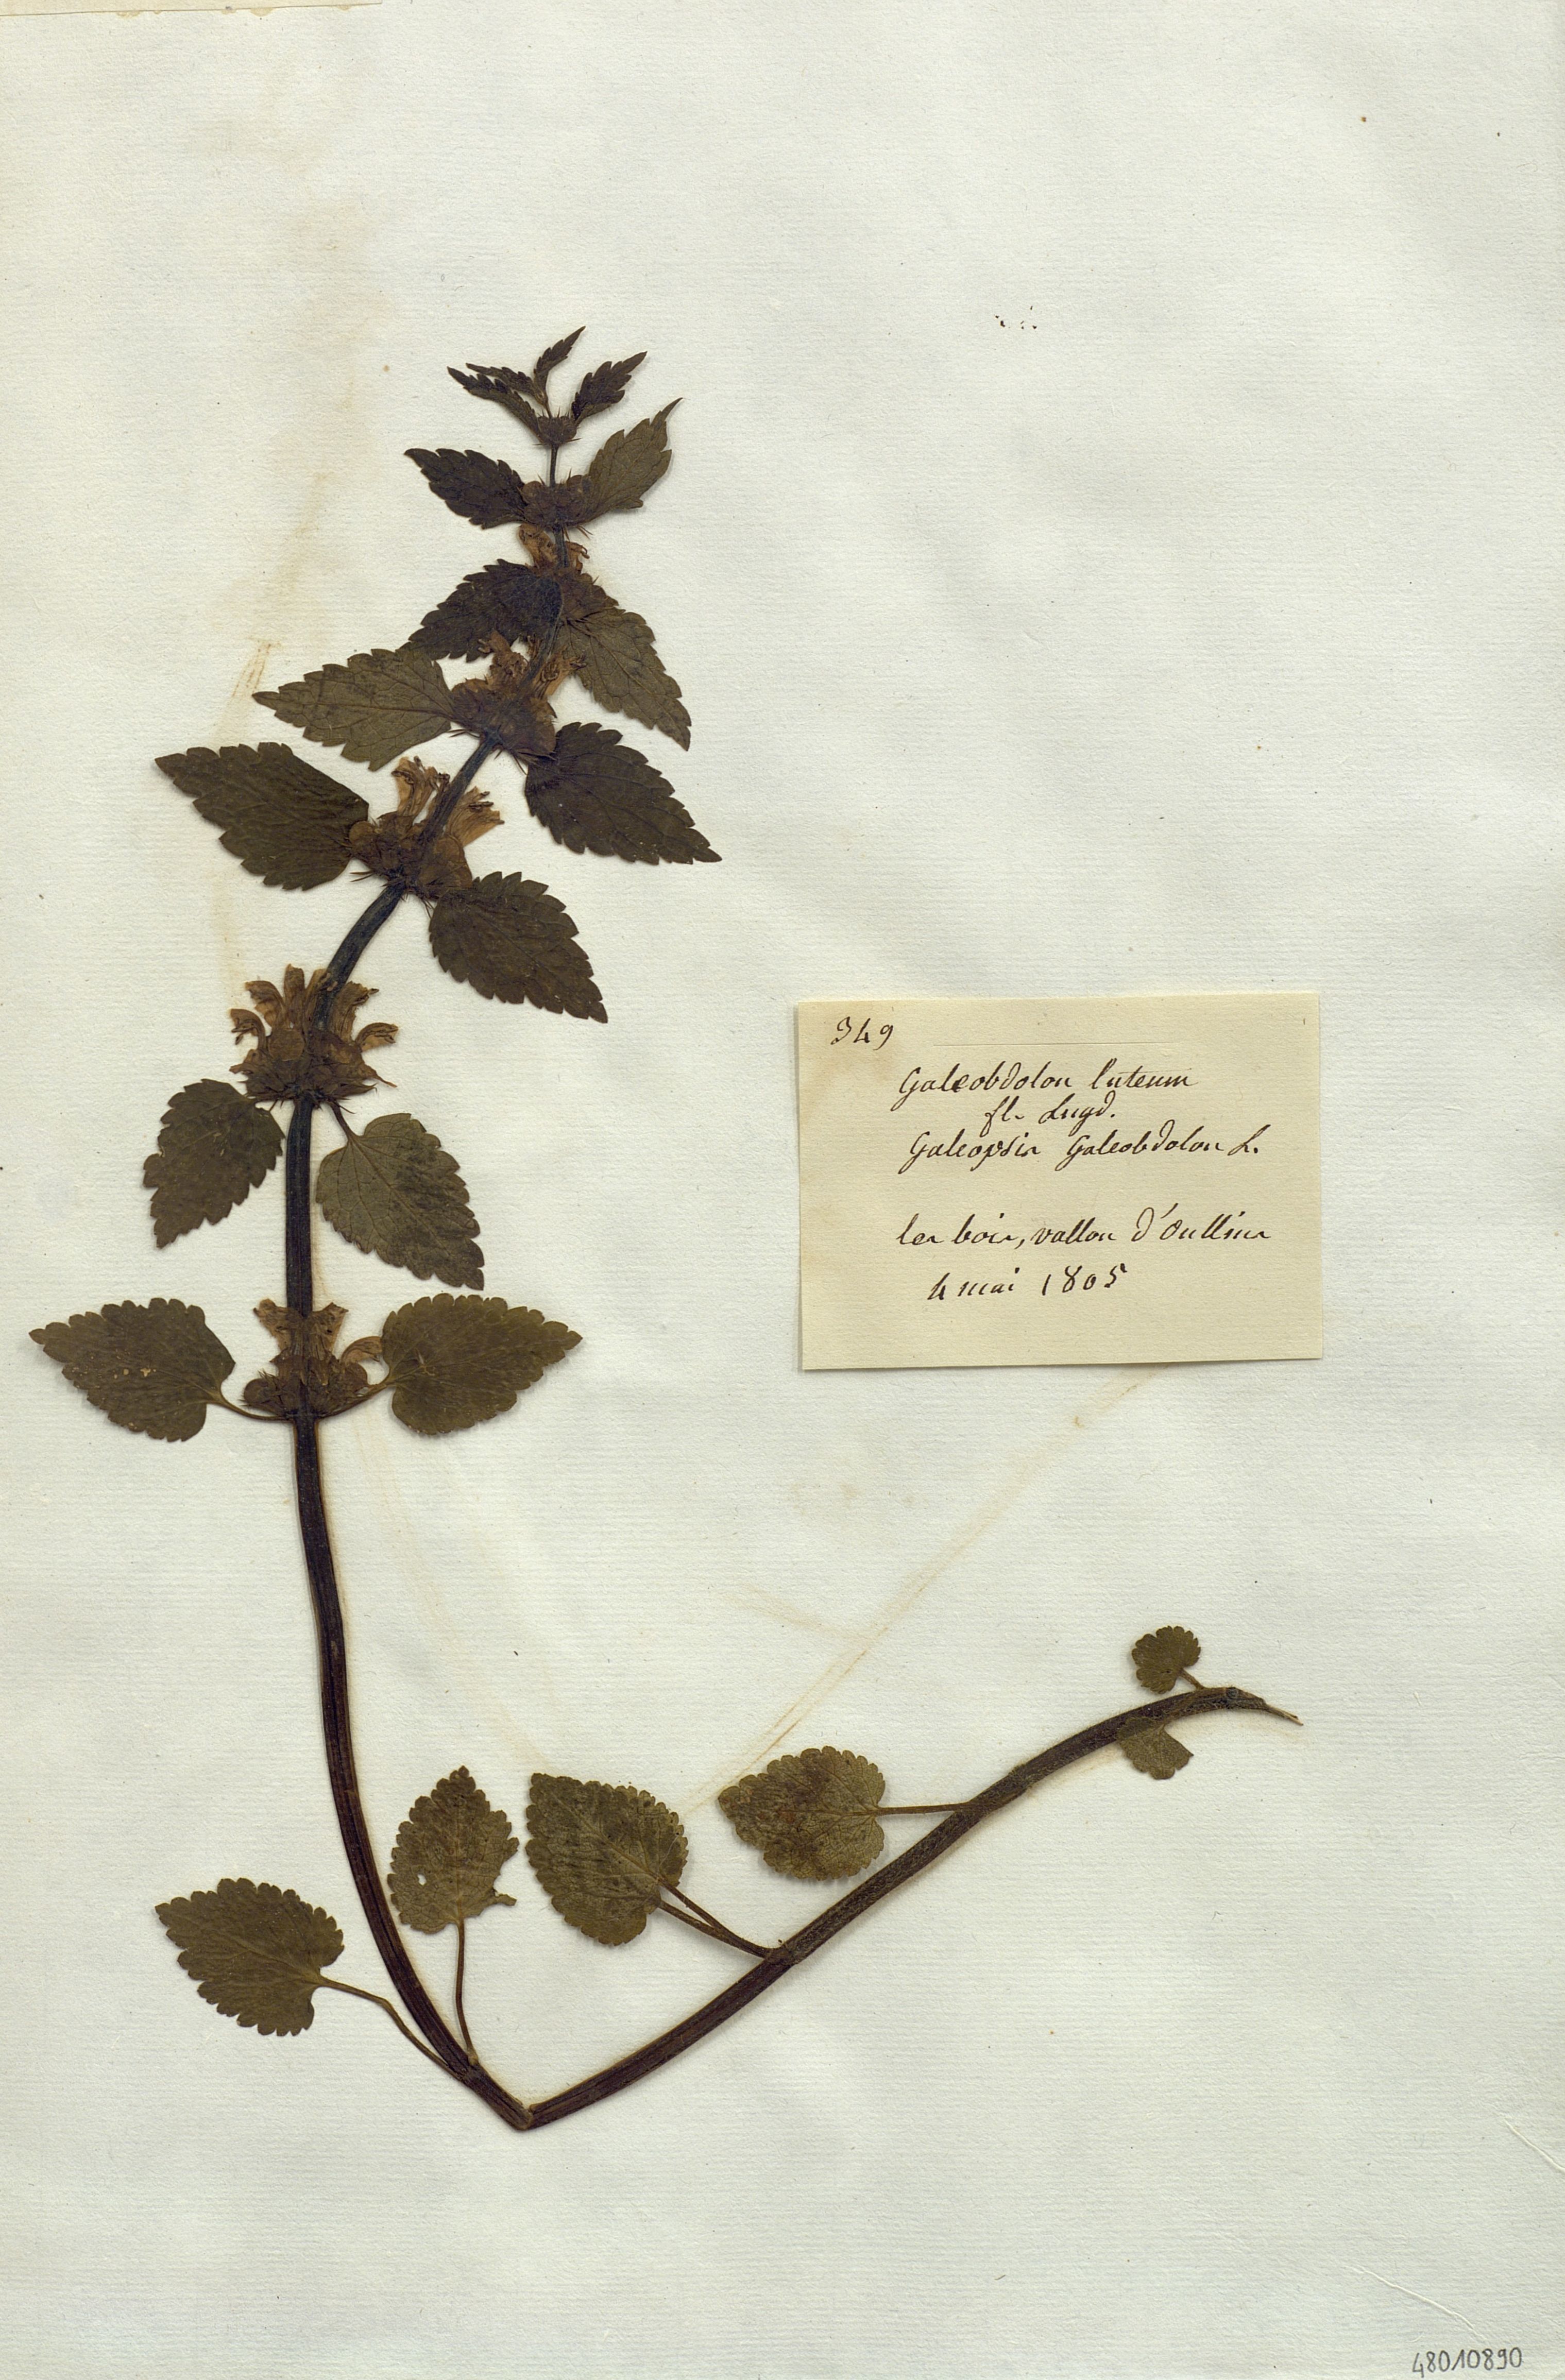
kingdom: Plantae
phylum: Tracheophyta
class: Magnoliopsida
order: Lamiales
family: Lamiaceae
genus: Lamium
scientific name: Lamium galeobdolon
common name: Yellow archangel
